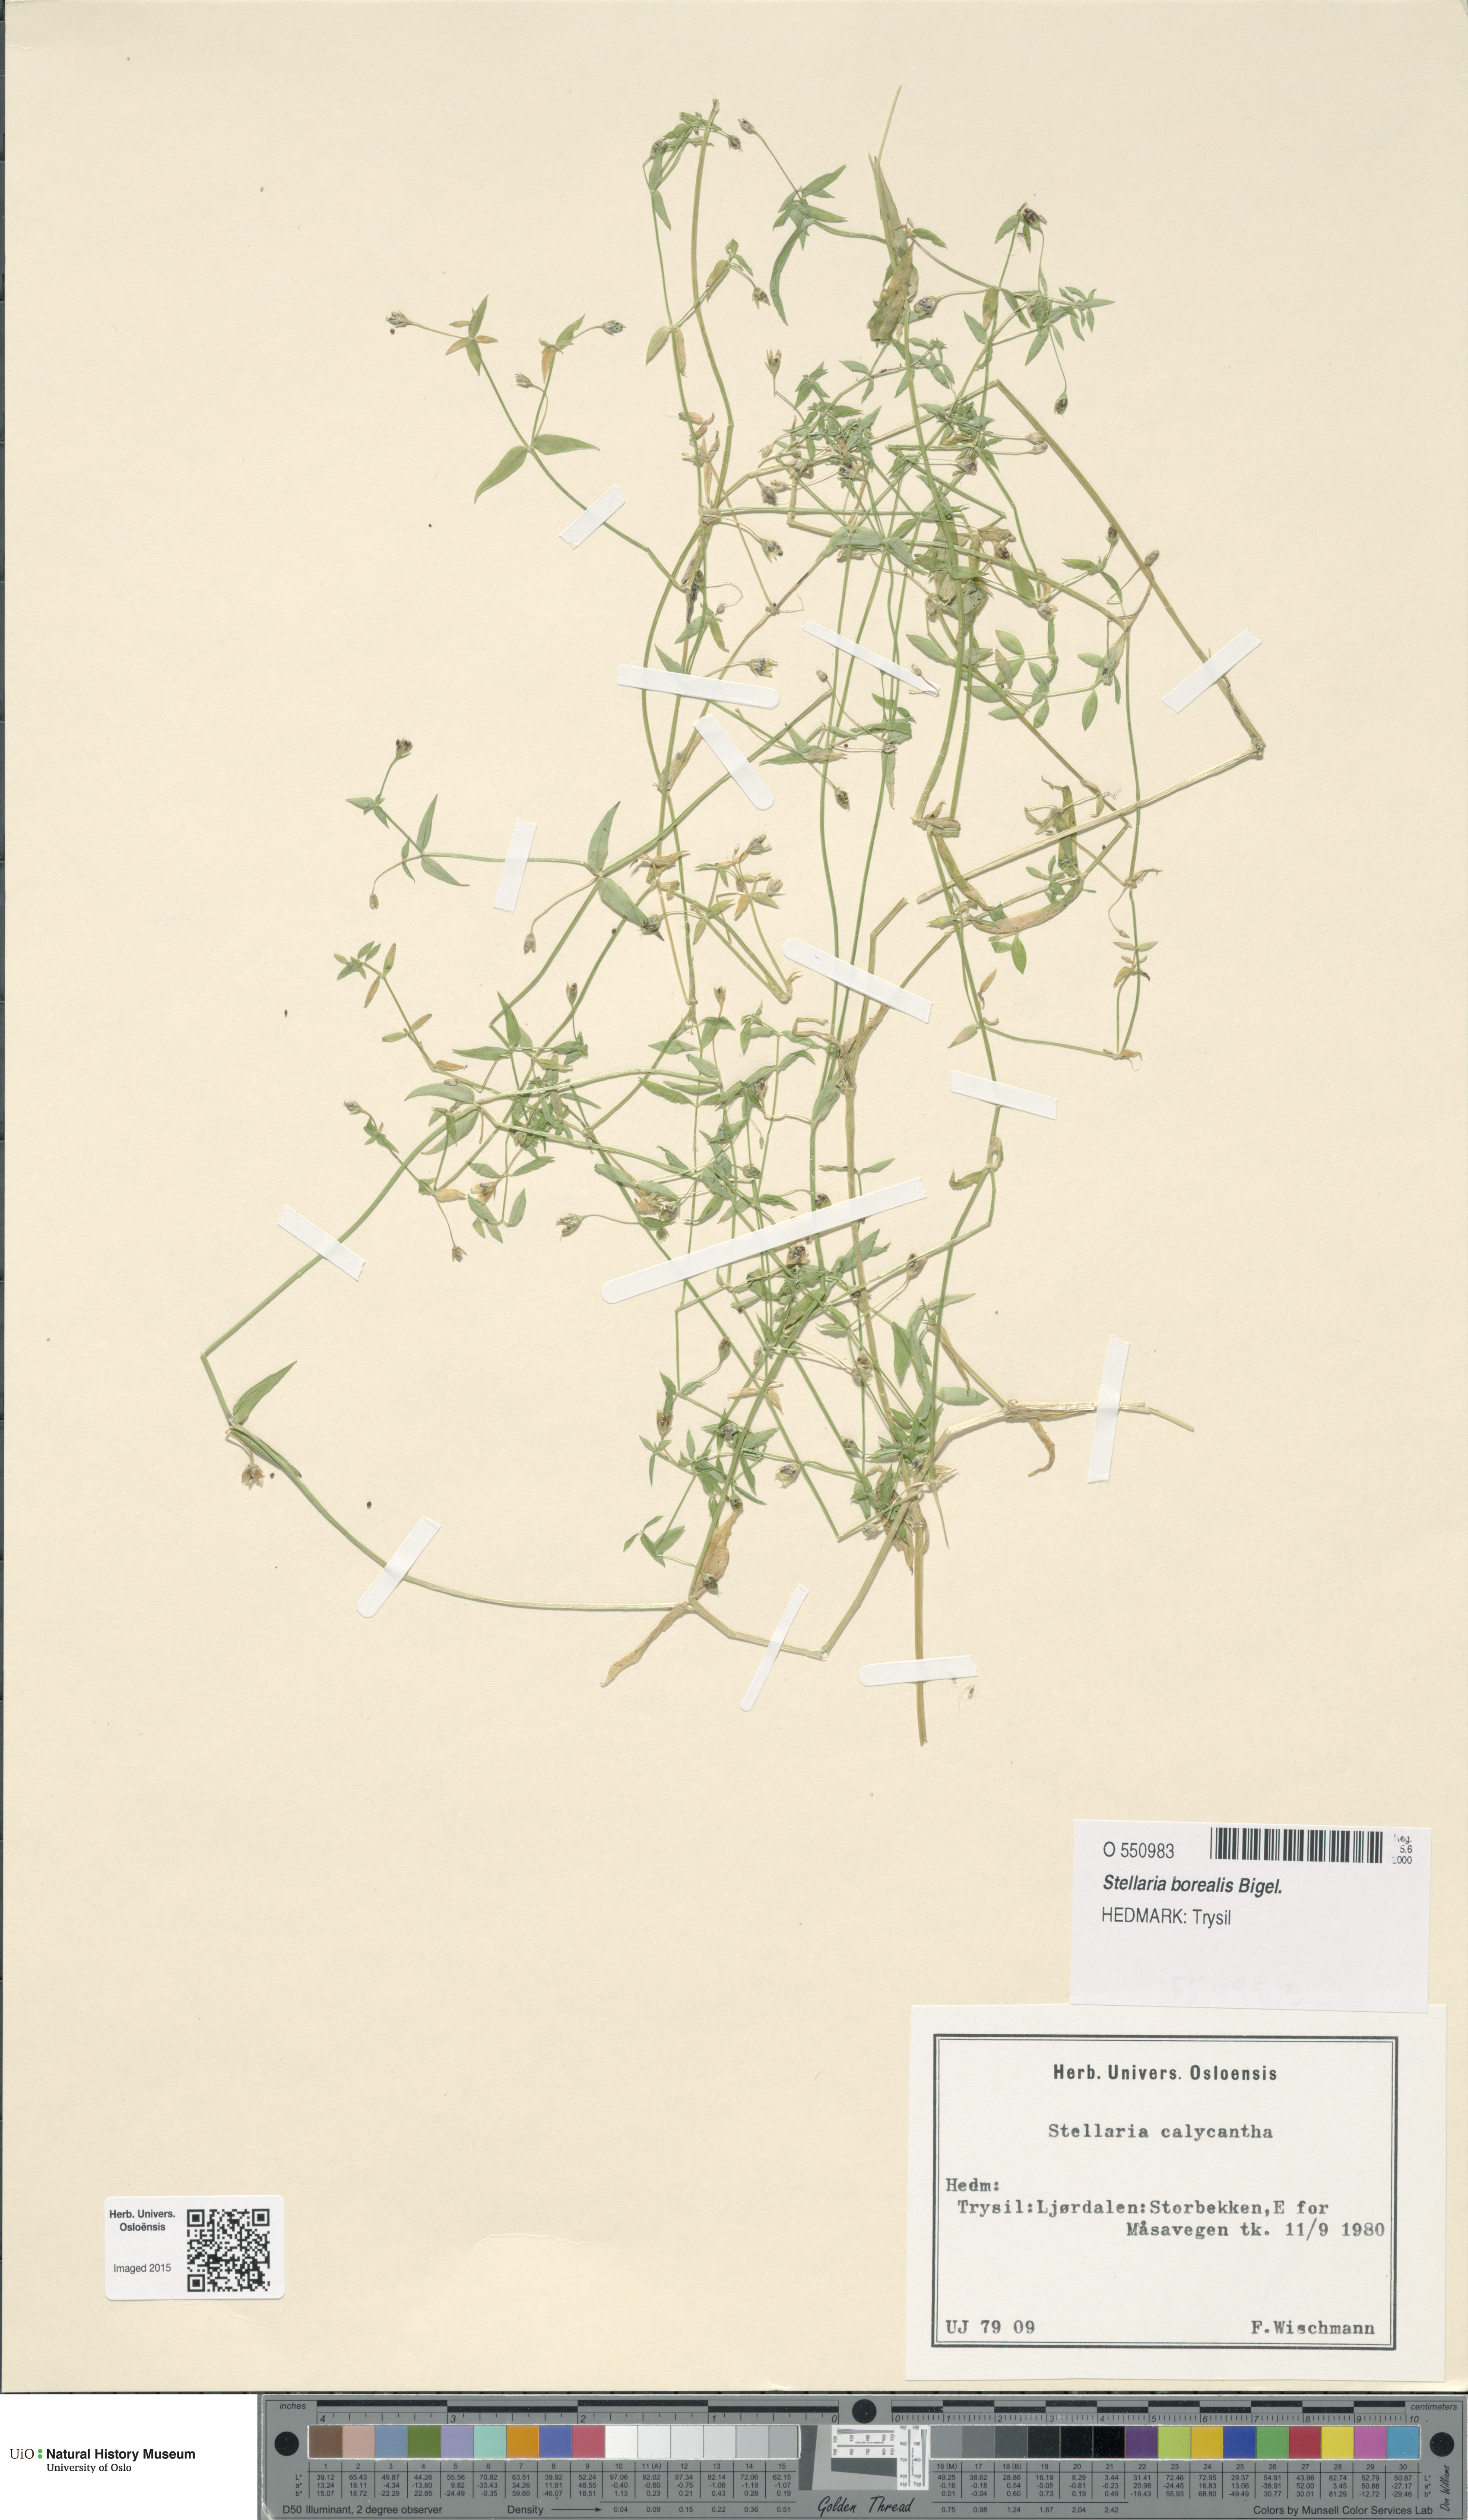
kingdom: Plantae
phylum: Tracheophyta
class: Magnoliopsida
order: Caryophyllales
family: Caryophyllaceae
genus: Stellaria
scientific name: Stellaria borealis
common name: Boreal starwort
